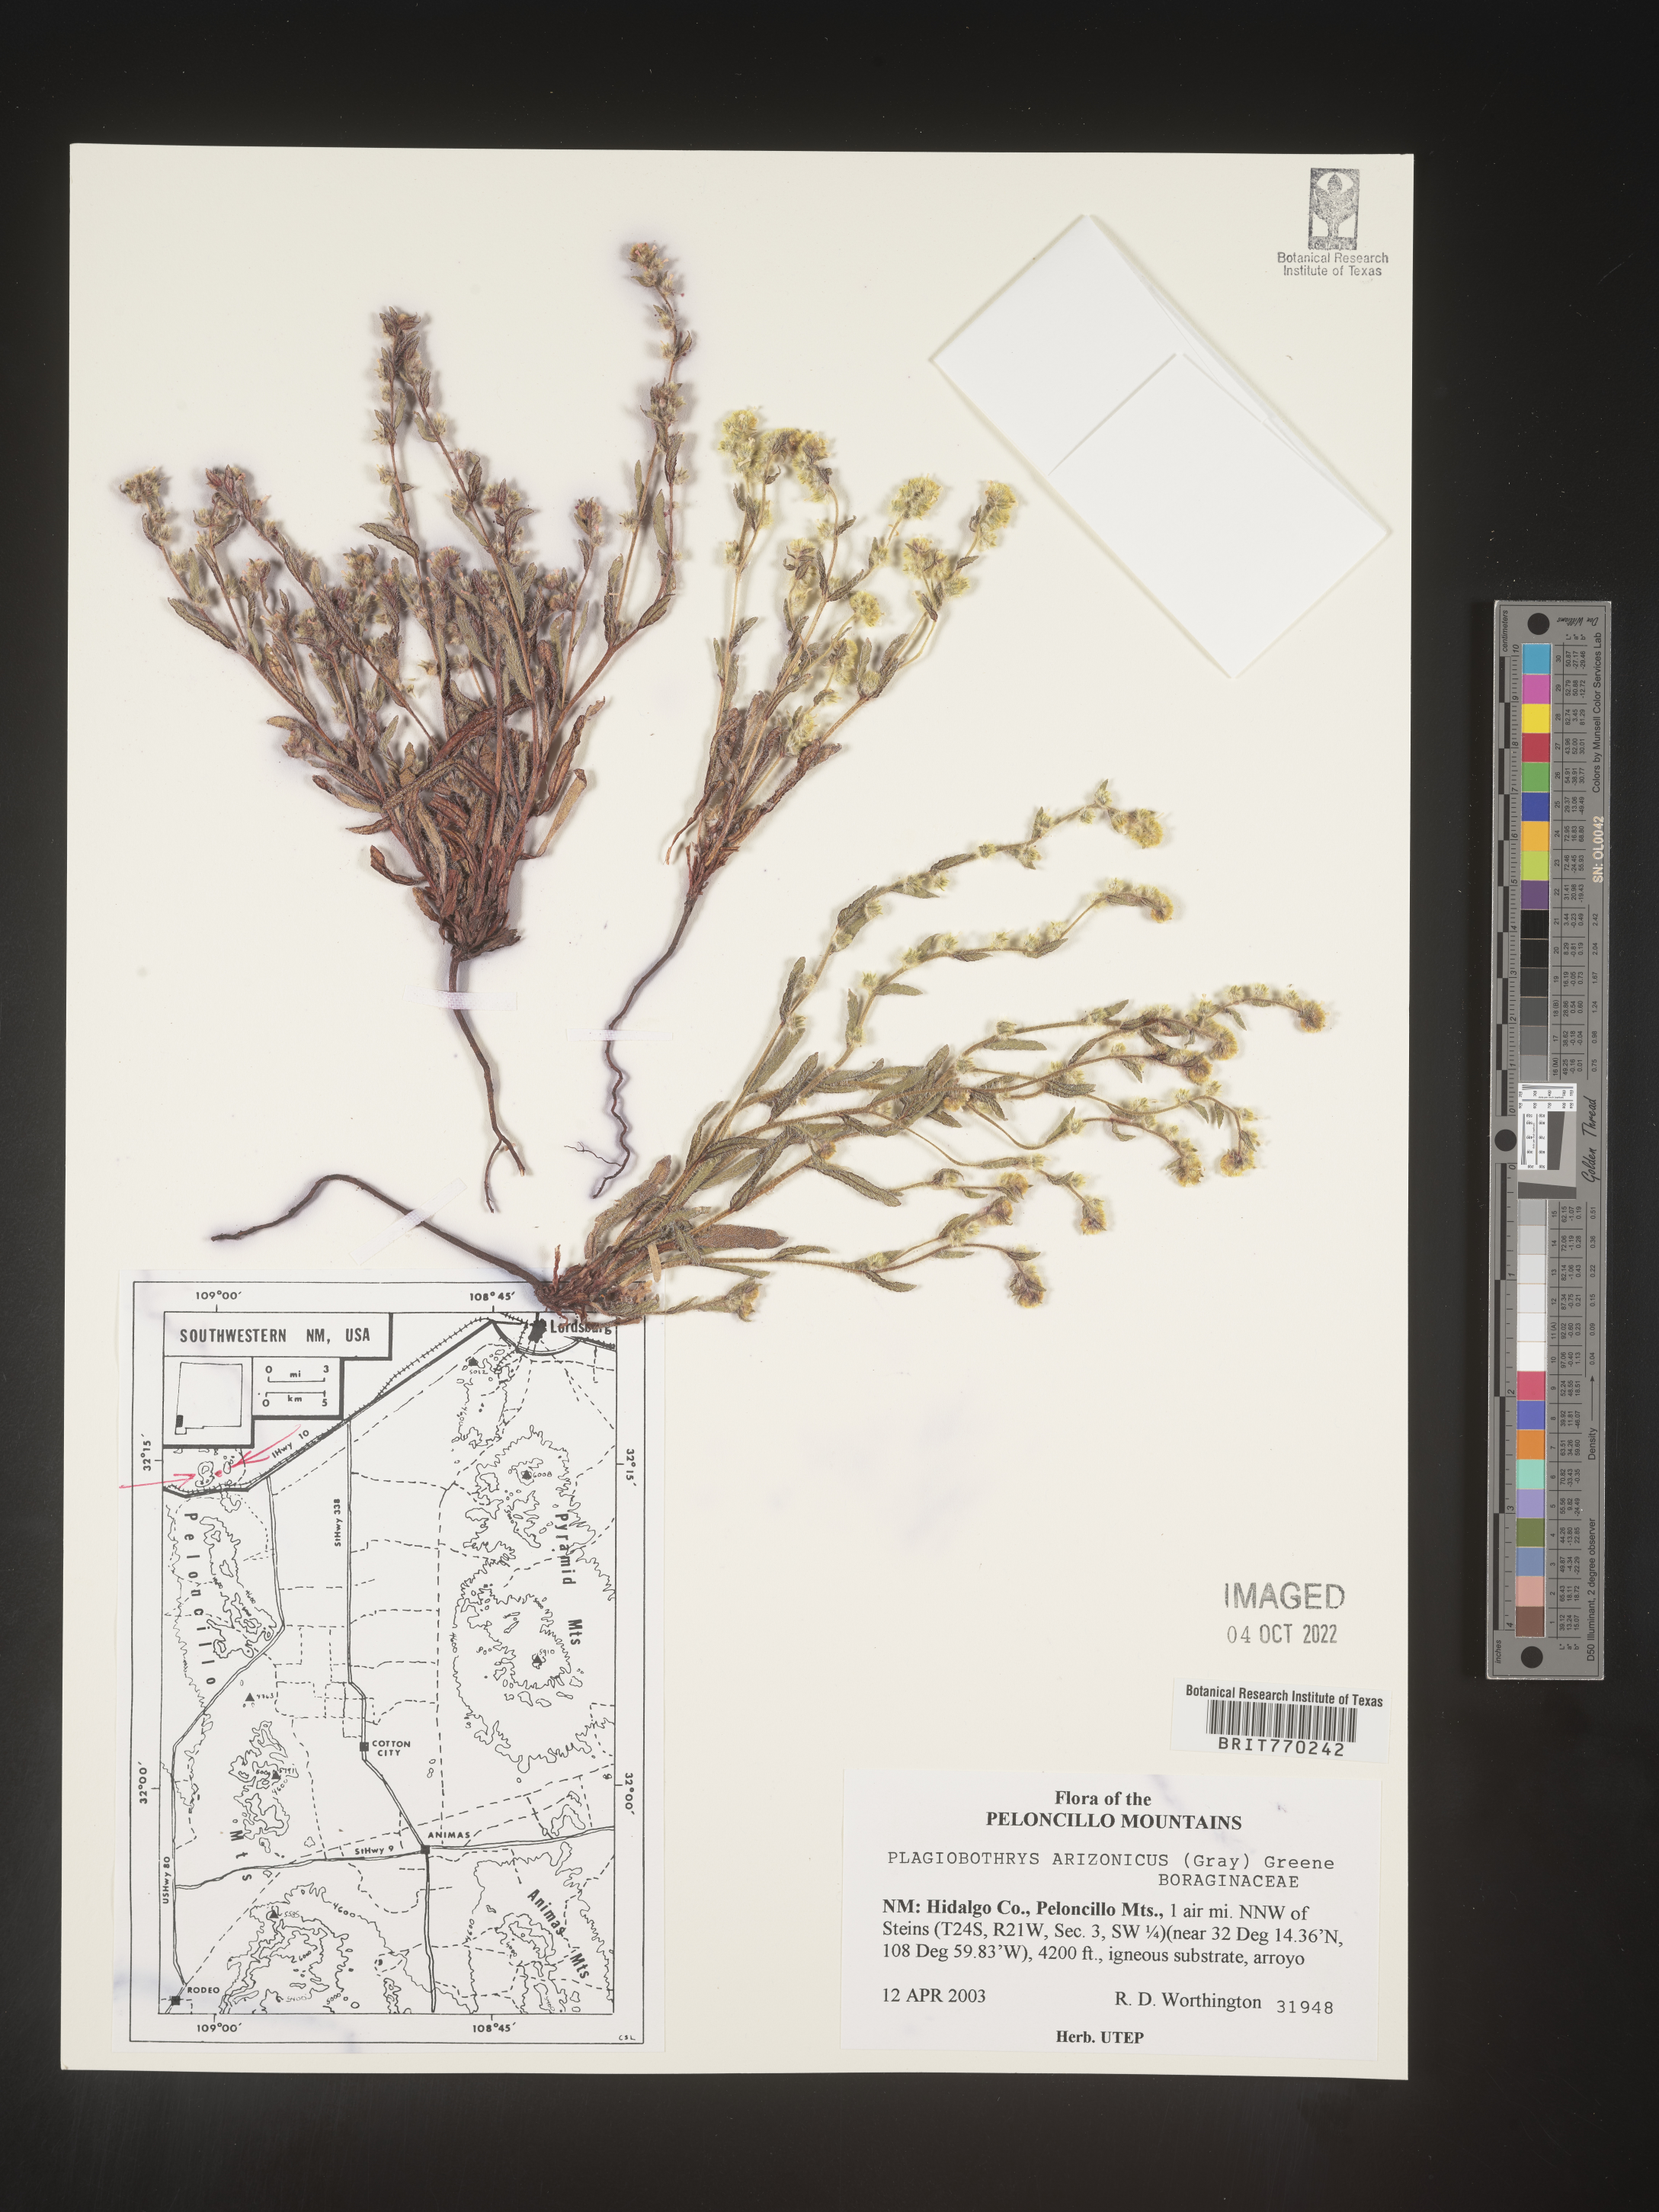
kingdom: Plantae
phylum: Tracheophyta
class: Magnoliopsida
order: Boraginales
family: Boraginaceae
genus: Plagiobothrys
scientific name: Plagiobothrys
